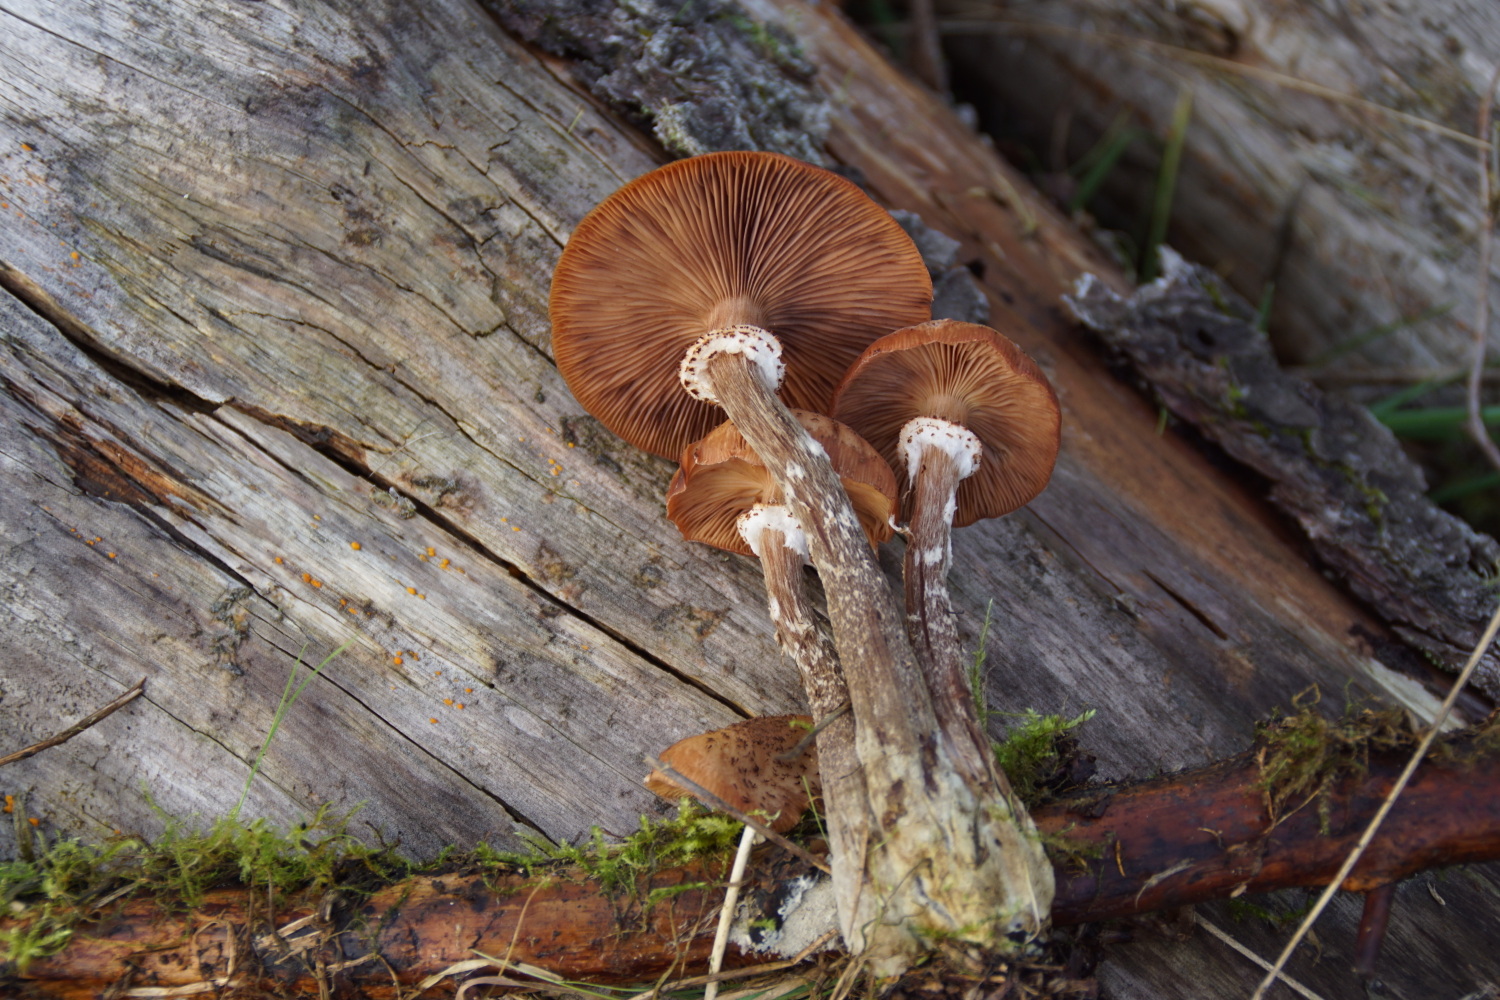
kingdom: Fungi
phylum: Basidiomycota
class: Agaricomycetes
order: Agaricales
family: Physalacriaceae
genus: Armillaria
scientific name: Armillaria ostoyae
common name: mørk honningsvamp
